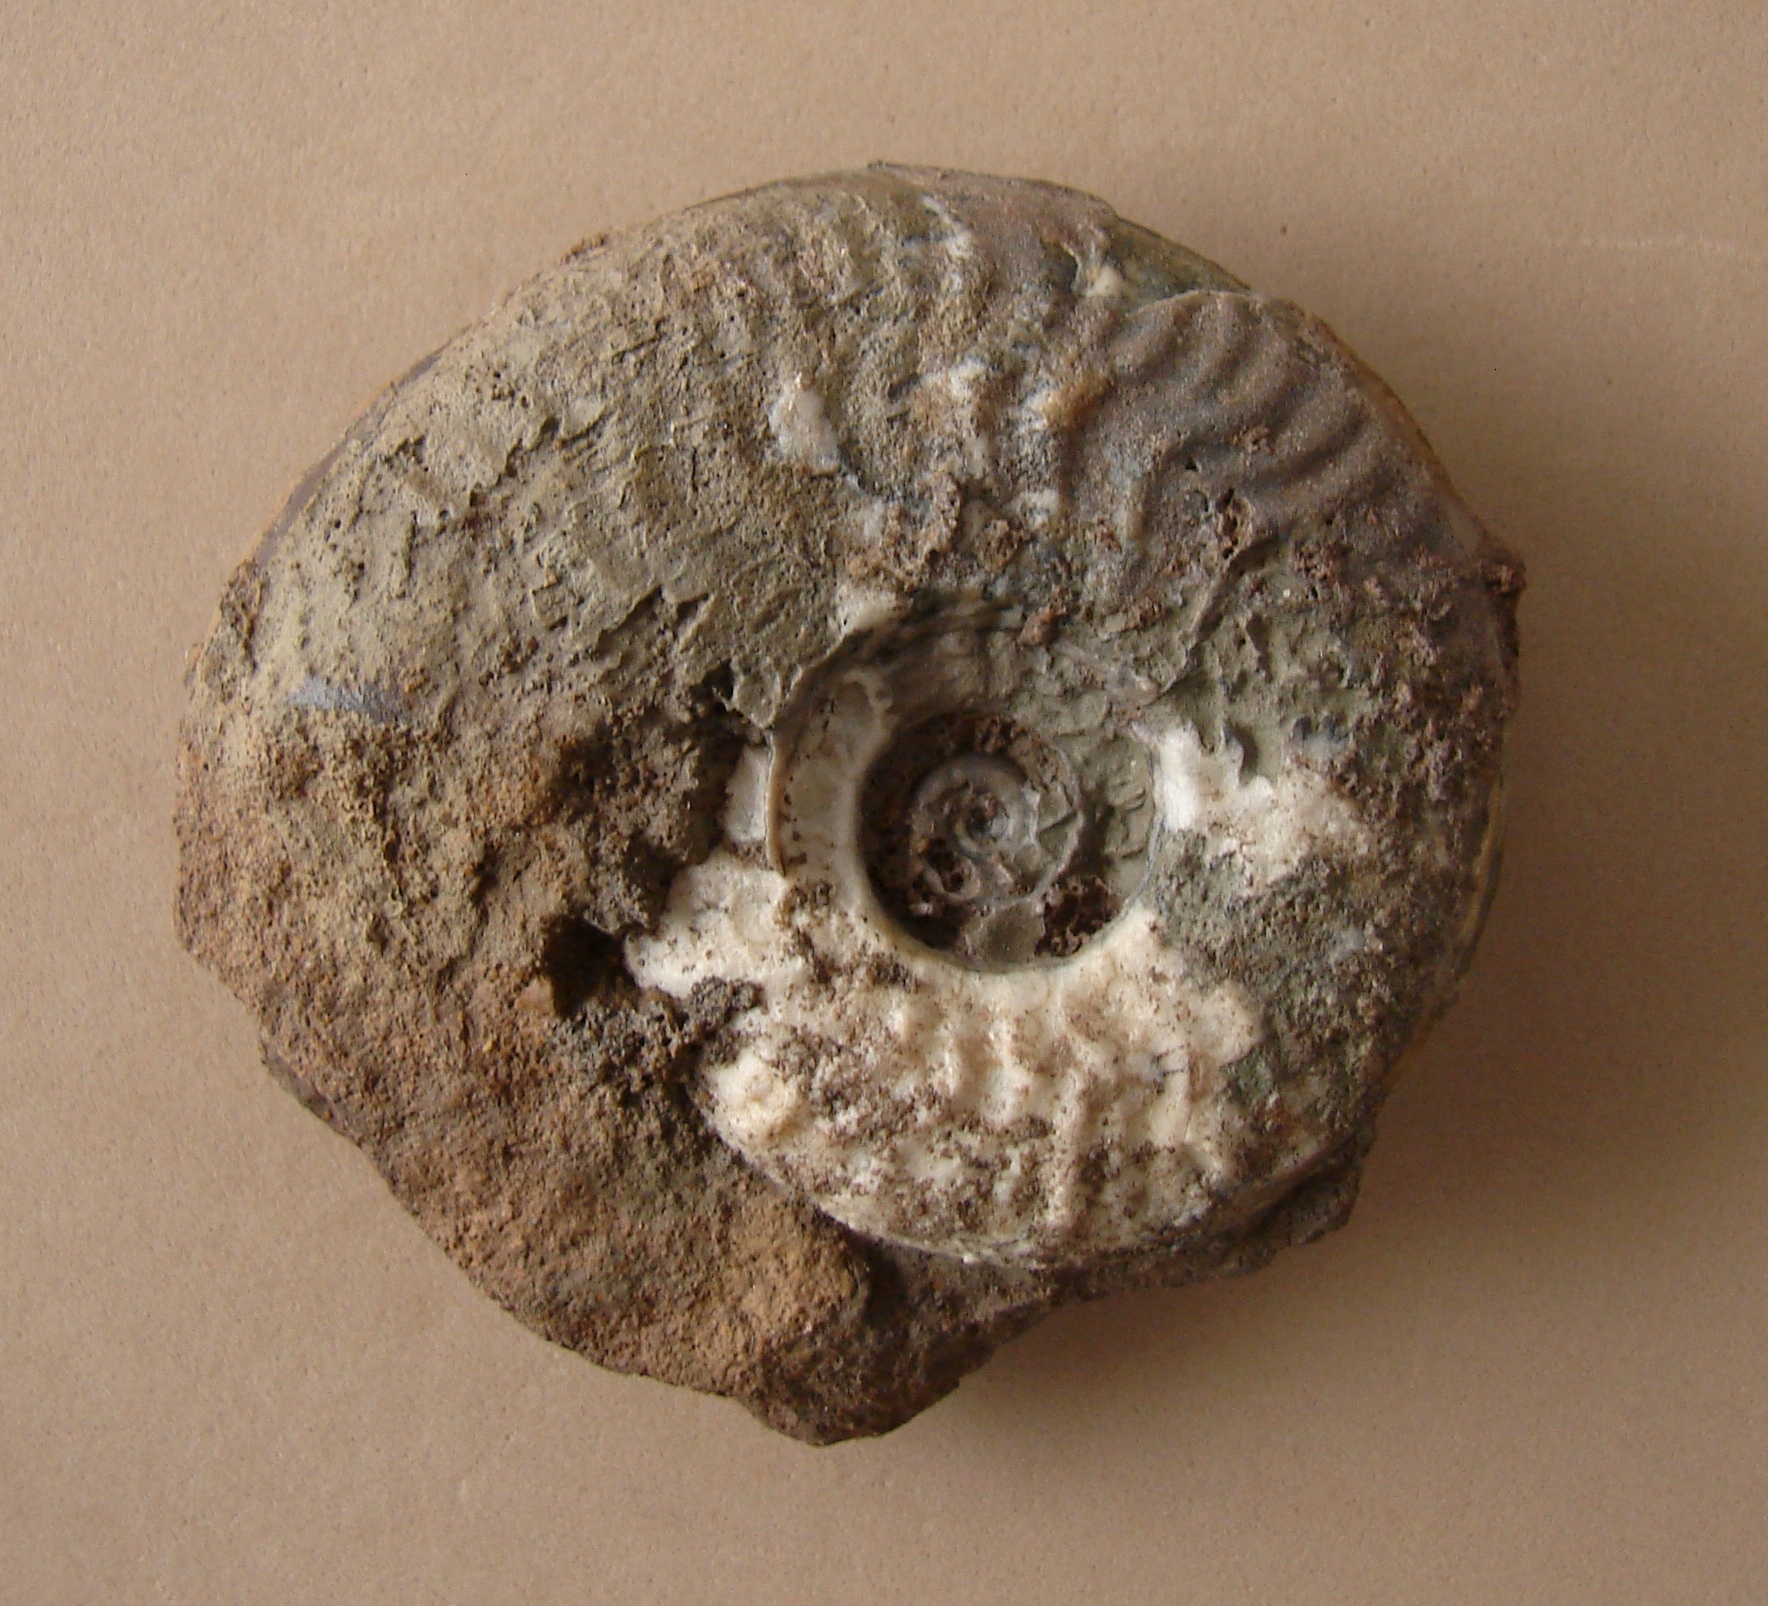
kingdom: Animalia
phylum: Mollusca
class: Cephalopoda
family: Graphoceratidae
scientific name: Graphoceratidae
